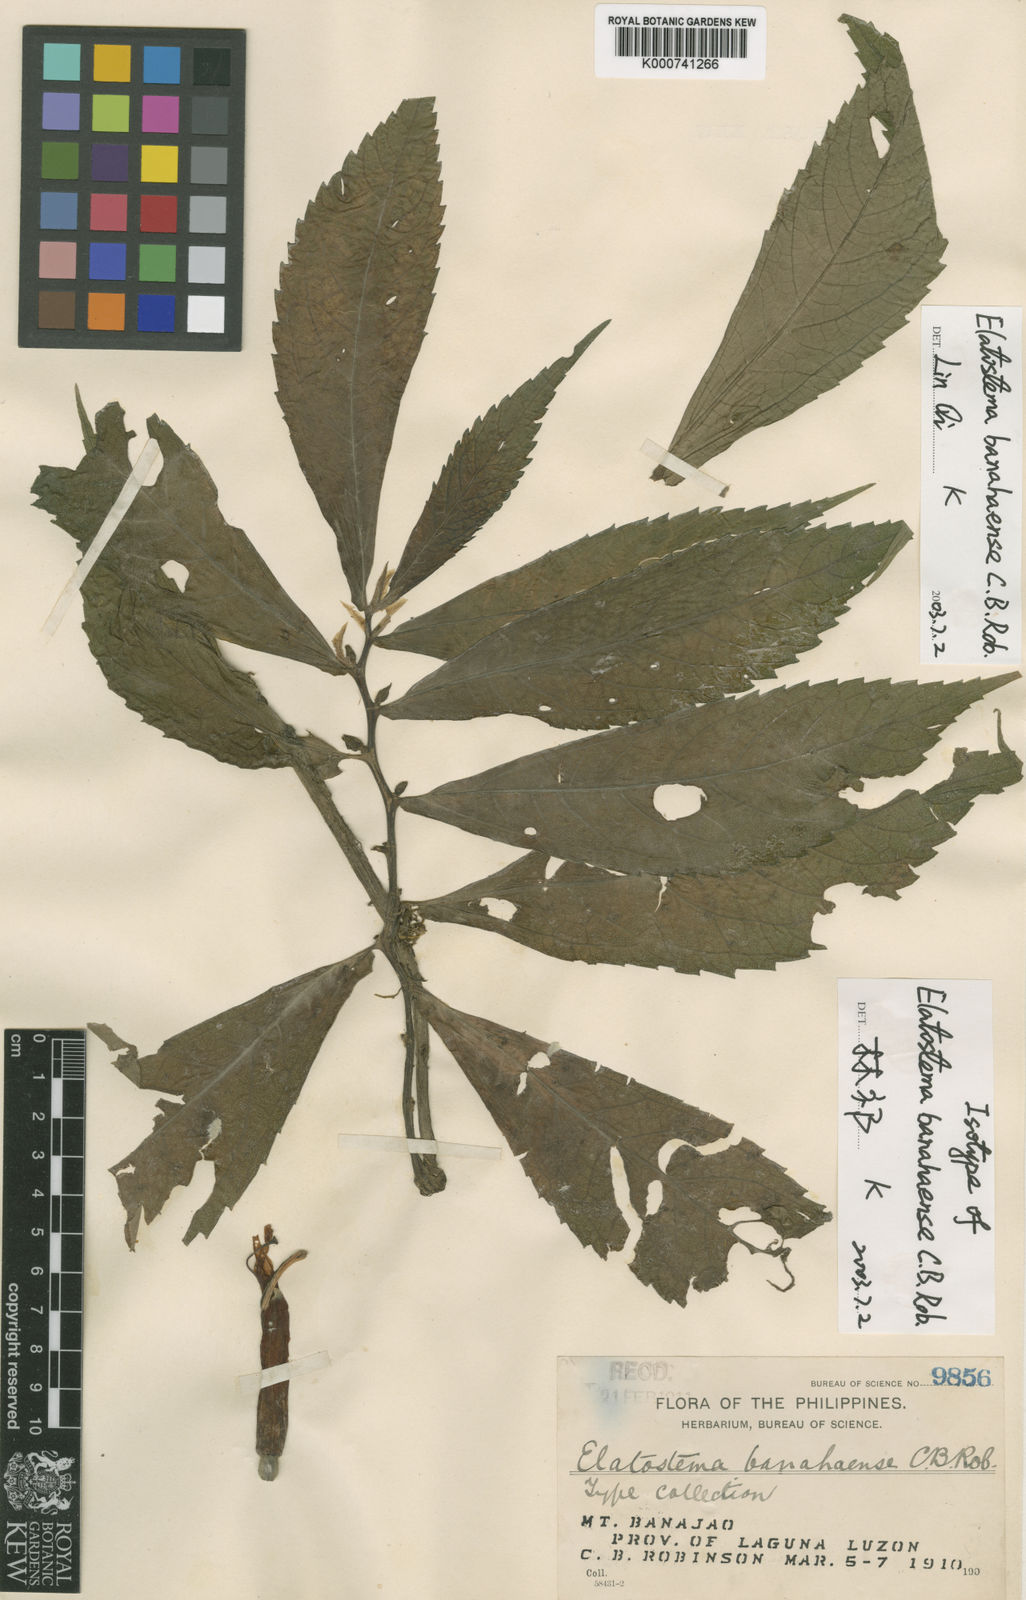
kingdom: Plantae
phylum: Tracheophyta
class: Magnoliopsida
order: Rosales
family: Urticaceae
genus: Elatostema
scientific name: Elatostema banahaense
